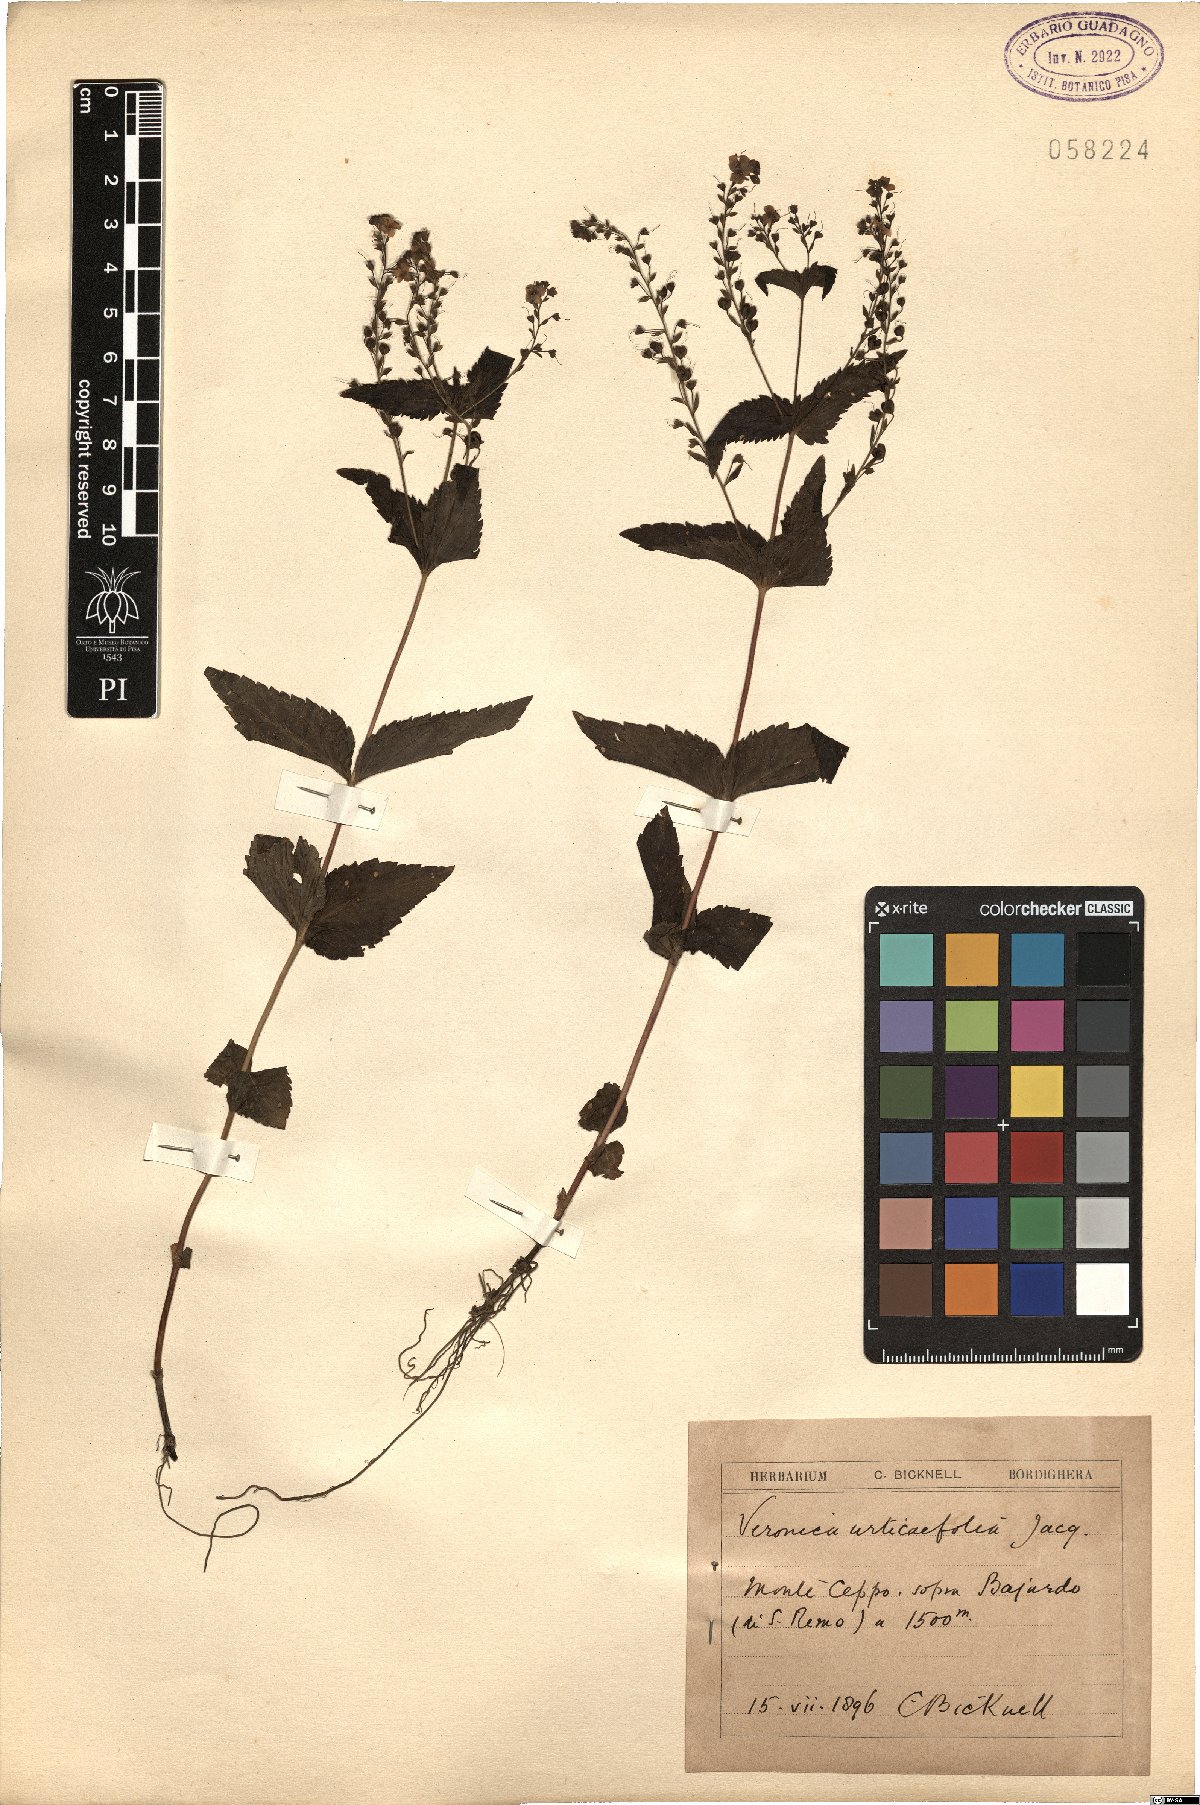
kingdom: Plantae
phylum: Tracheophyta
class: Magnoliopsida
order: Lamiales
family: Plantaginaceae
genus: Veronica
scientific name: Veronica urticifolia
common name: Nettle-leaf speedwell
